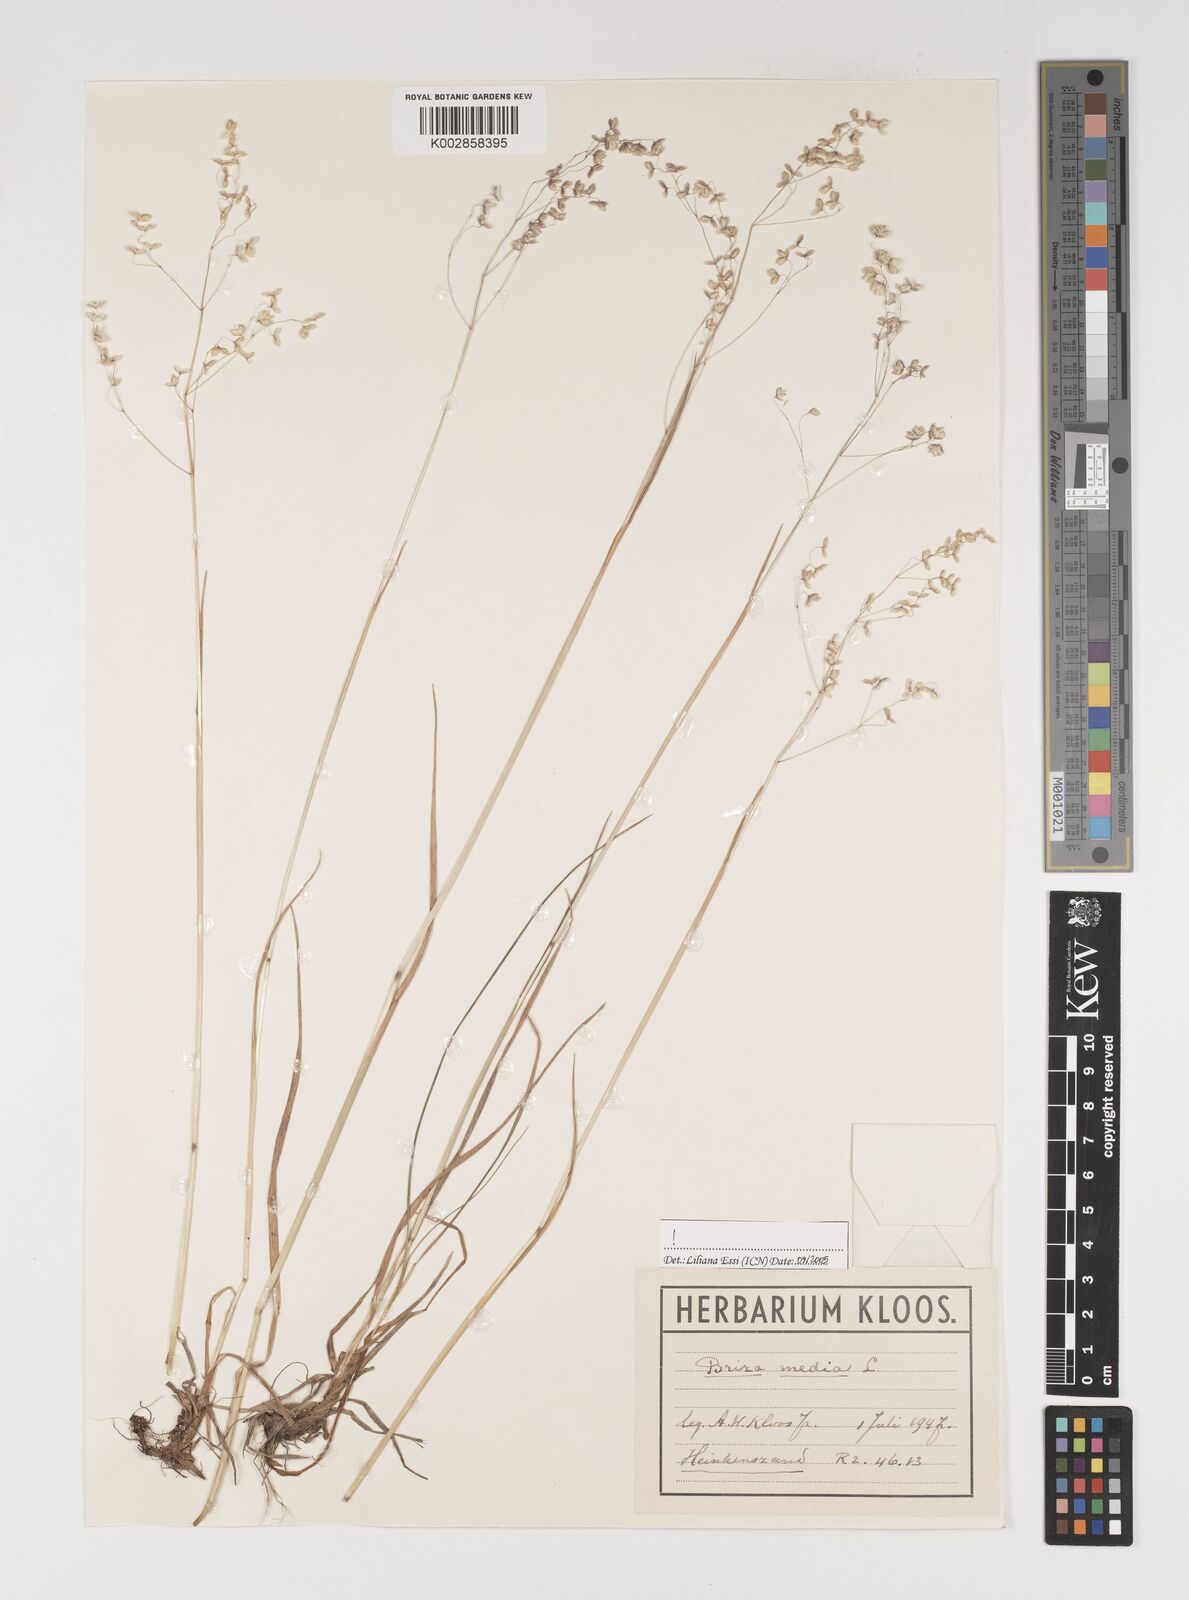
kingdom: Plantae
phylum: Tracheophyta
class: Liliopsida
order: Poales
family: Poaceae
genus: Briza
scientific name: Briza media
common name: Quaking grass
